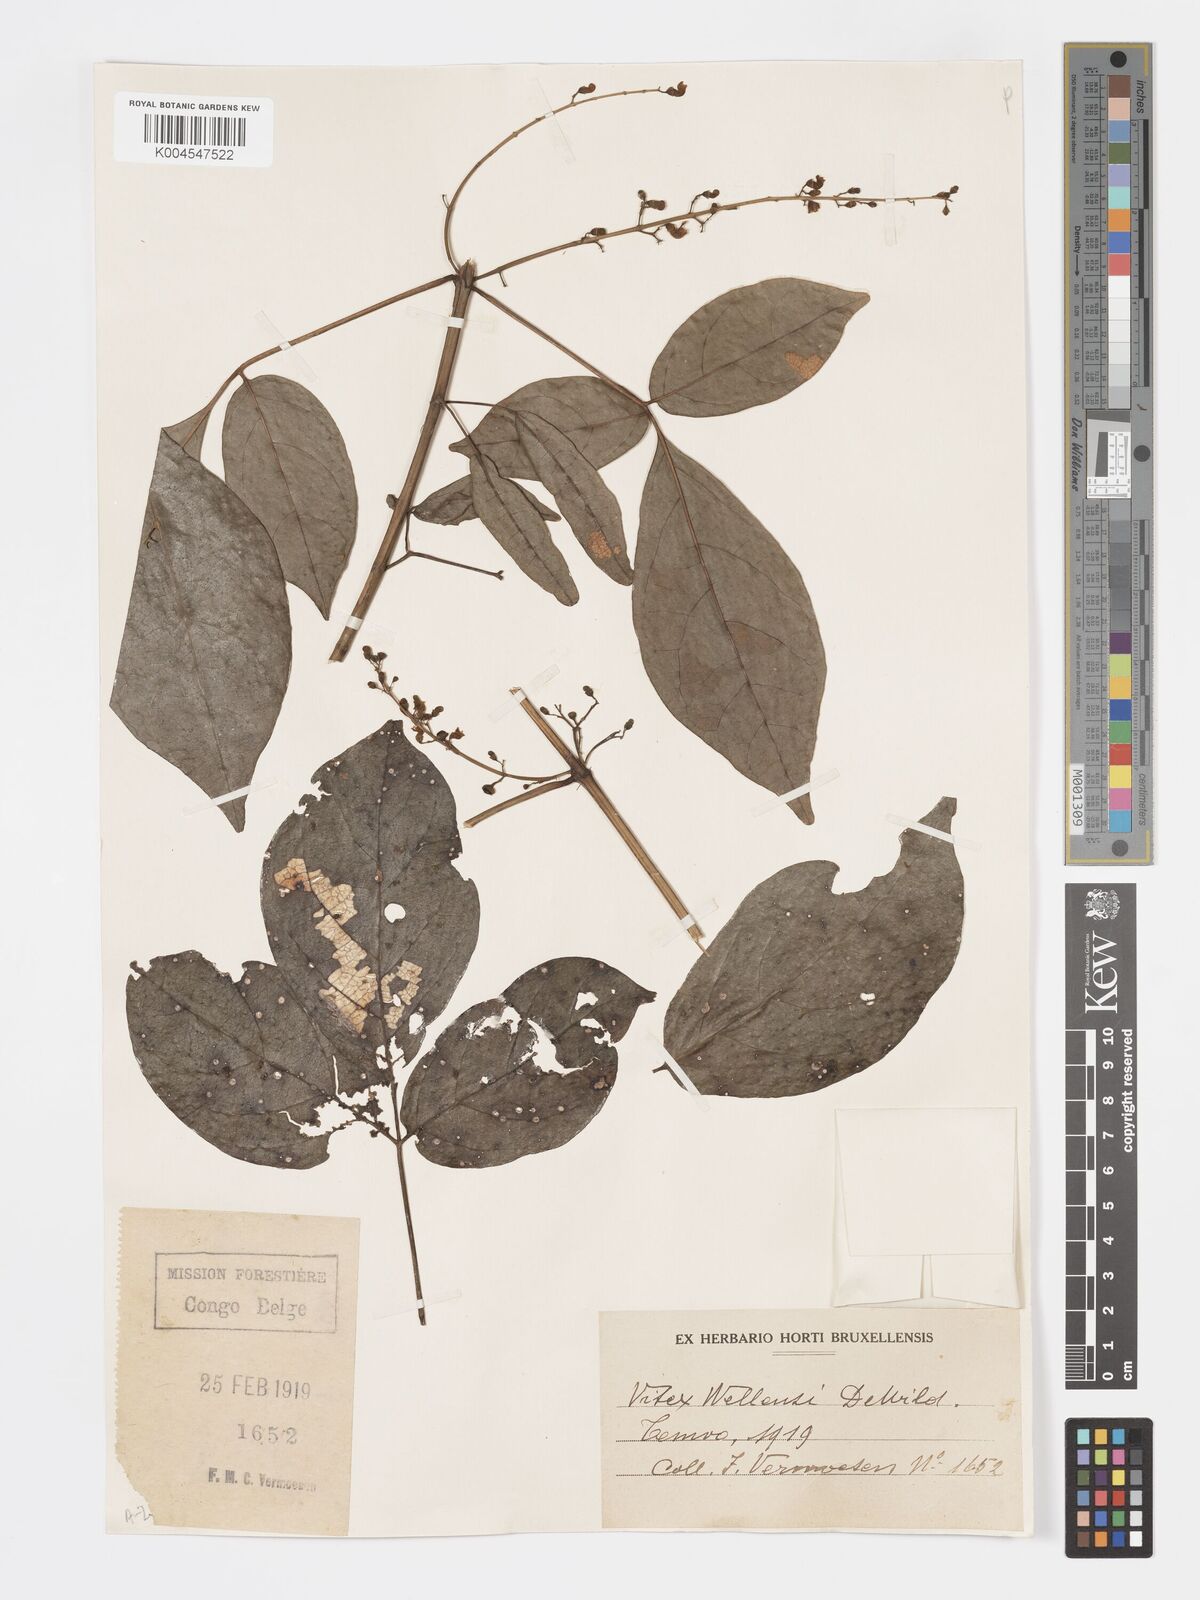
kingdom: Plantae
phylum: Tracheophyta
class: Magnoliopsida
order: Lamiales
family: Lamiaceae
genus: Vitex
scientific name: Vitex agelaeifolia
